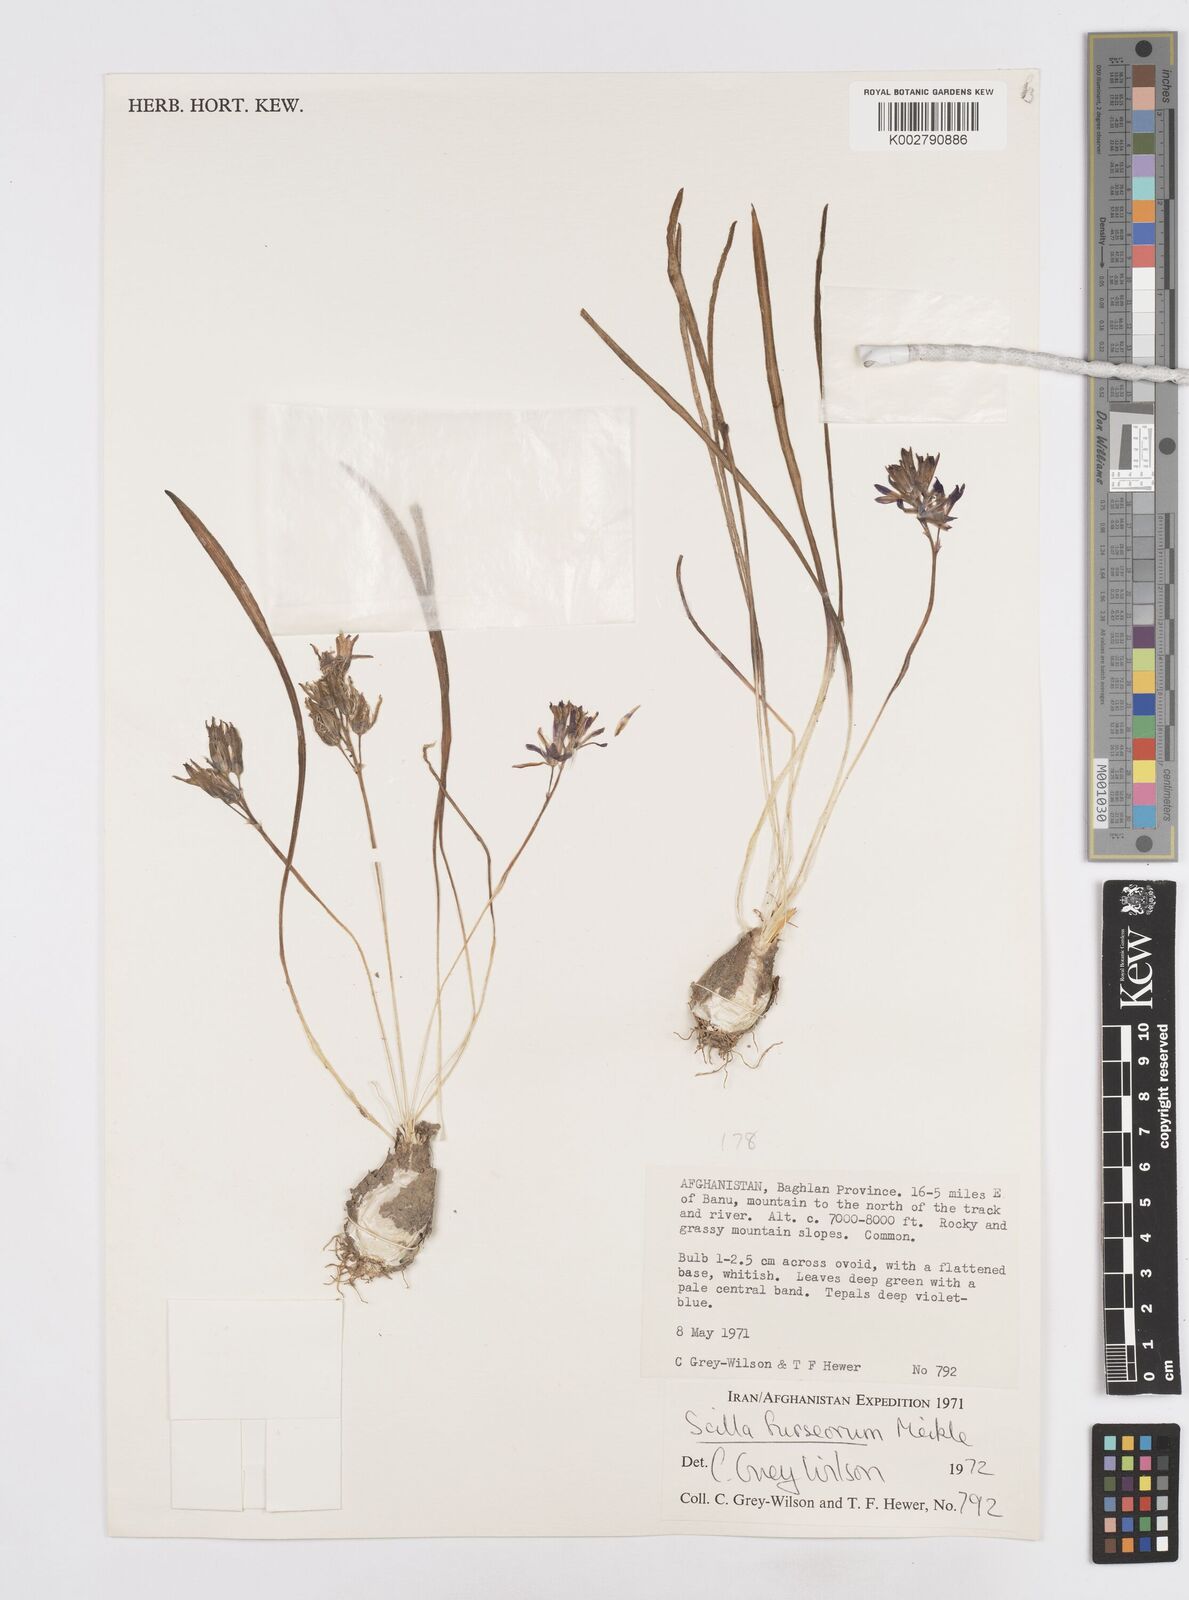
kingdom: Plantae
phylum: Tracheophyta
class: Liliopsida
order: Asparagales
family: Asparagaceae
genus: Fessia
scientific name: Fessia furseorum
